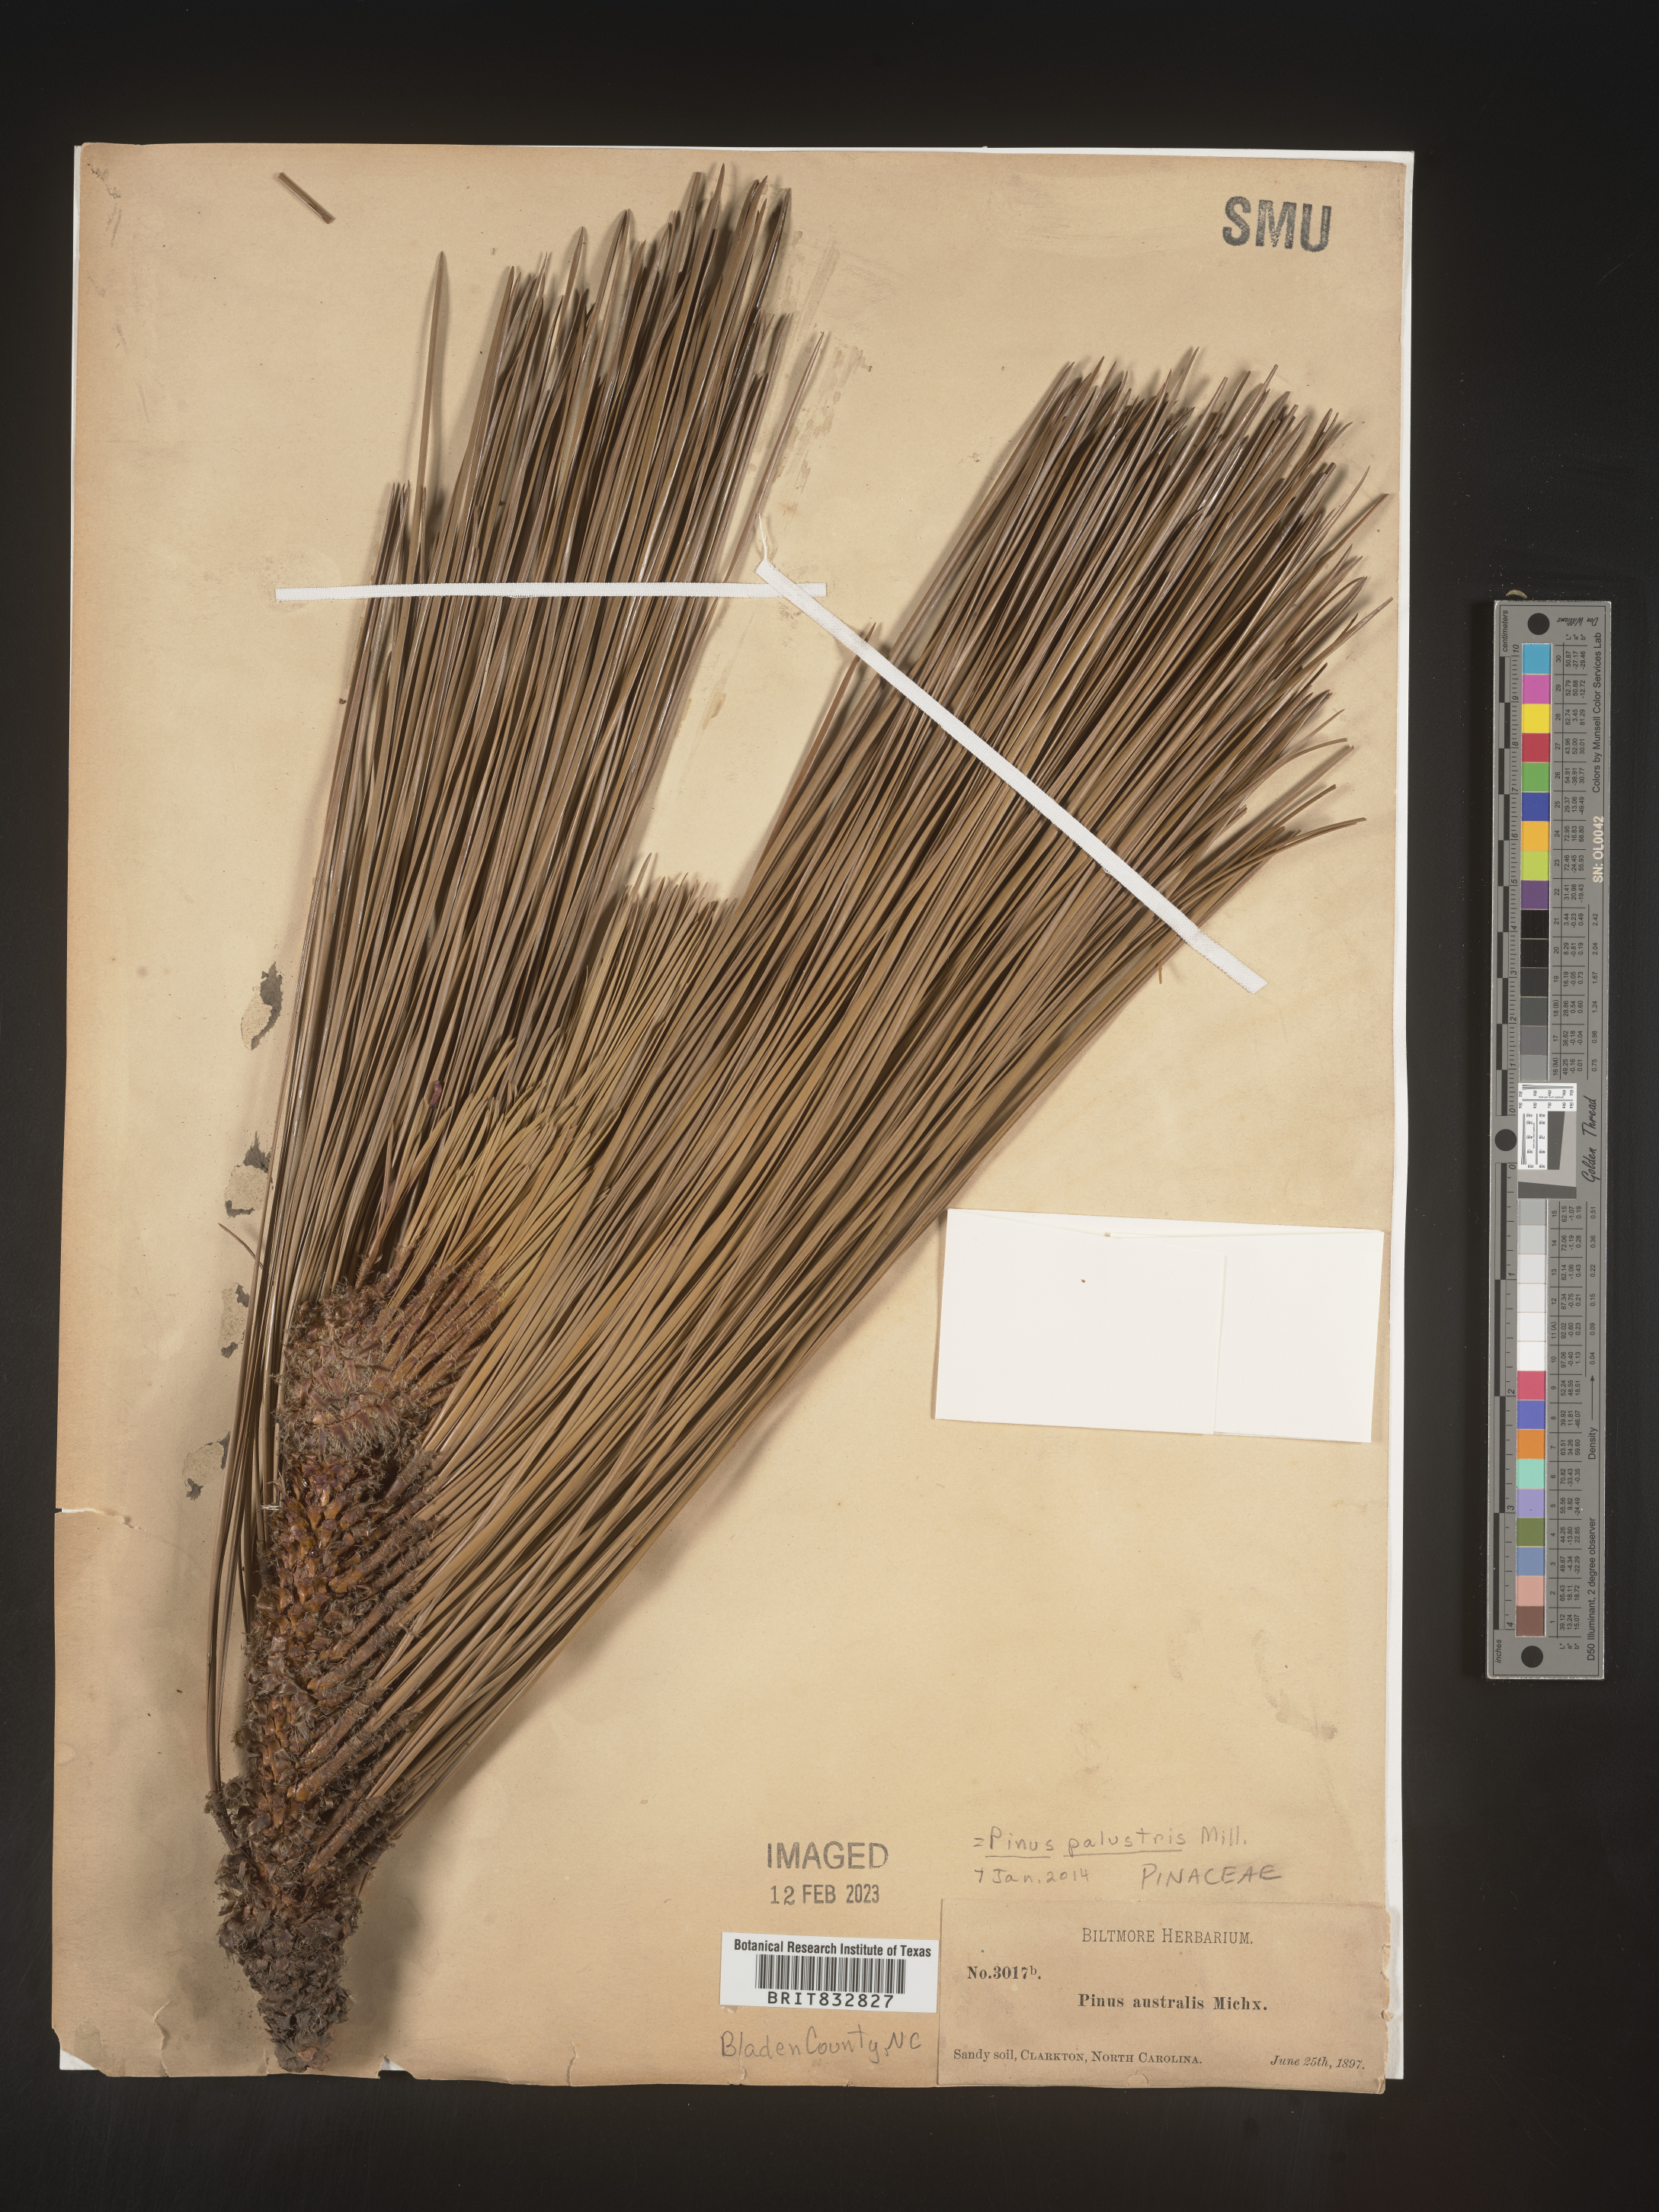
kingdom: Plantae
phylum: Tracheophyta
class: Pinopsida
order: Pinales
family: Pinaceae
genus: Pinus
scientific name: Pinus palustris
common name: Longleaf pine
